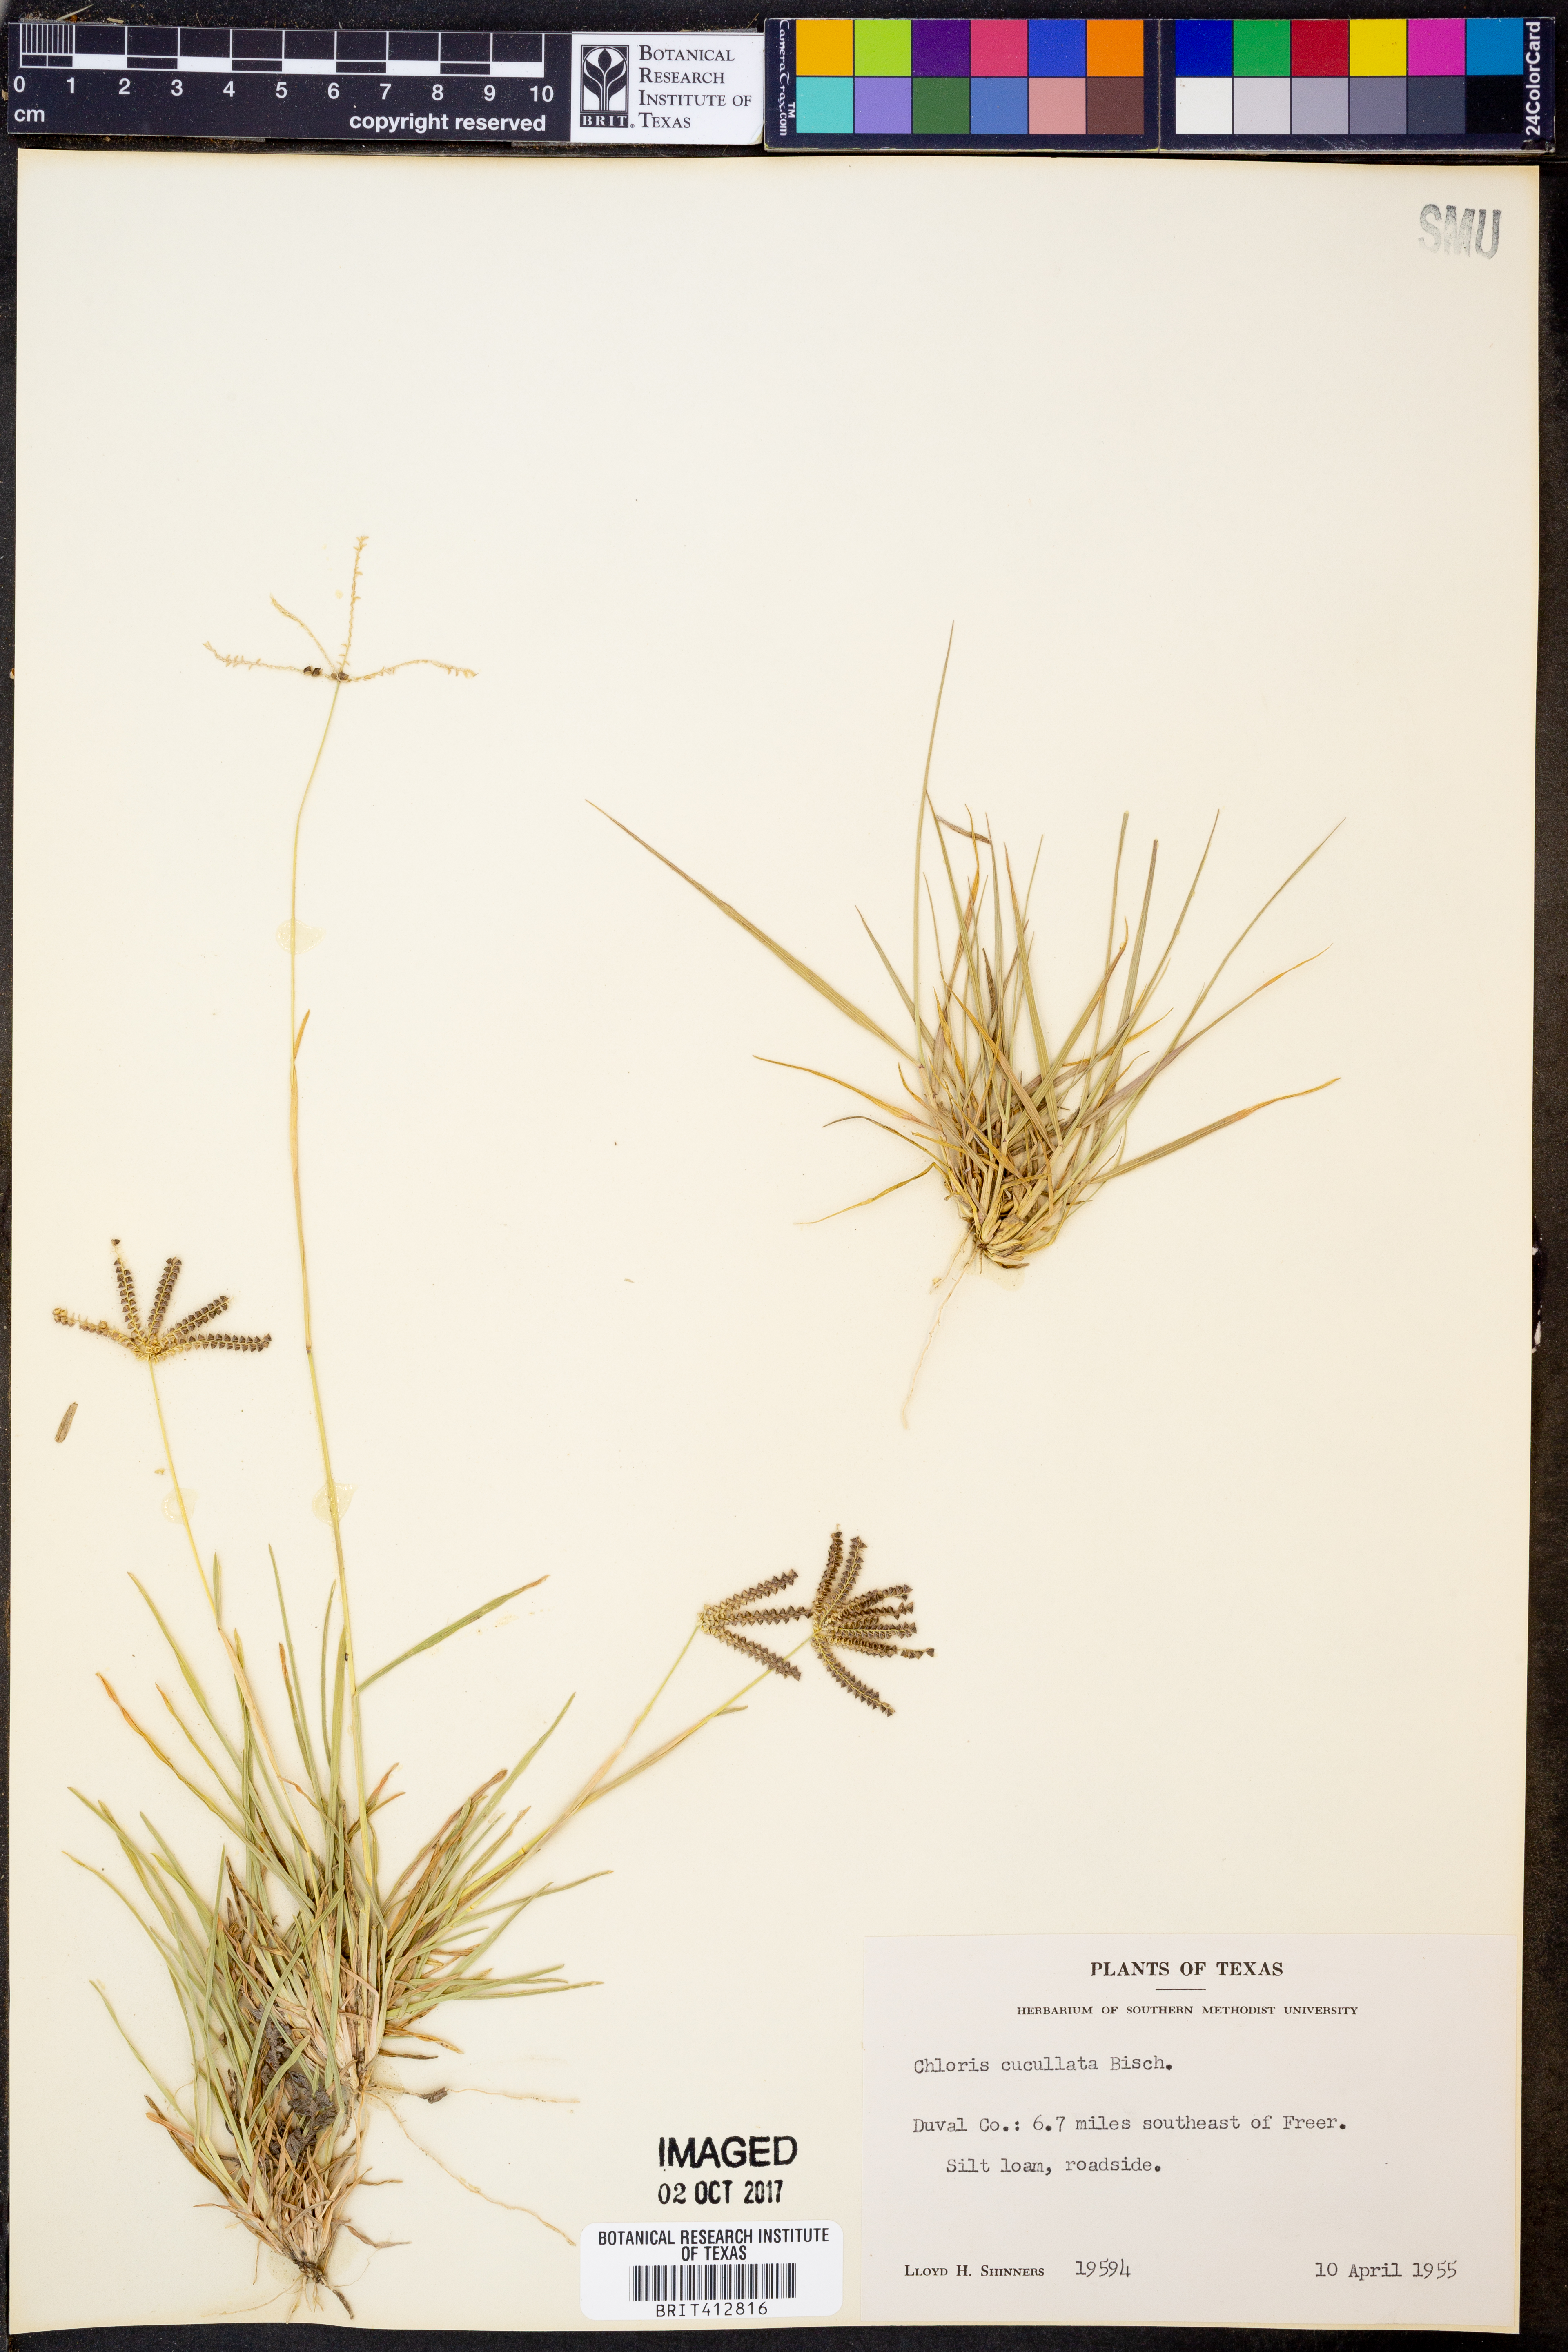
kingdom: Plantae
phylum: Tracheophyta
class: Liliopsida
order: Poales
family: Poaceae
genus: Chloris
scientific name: Chloris cucullata
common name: Hooded windmill grass
